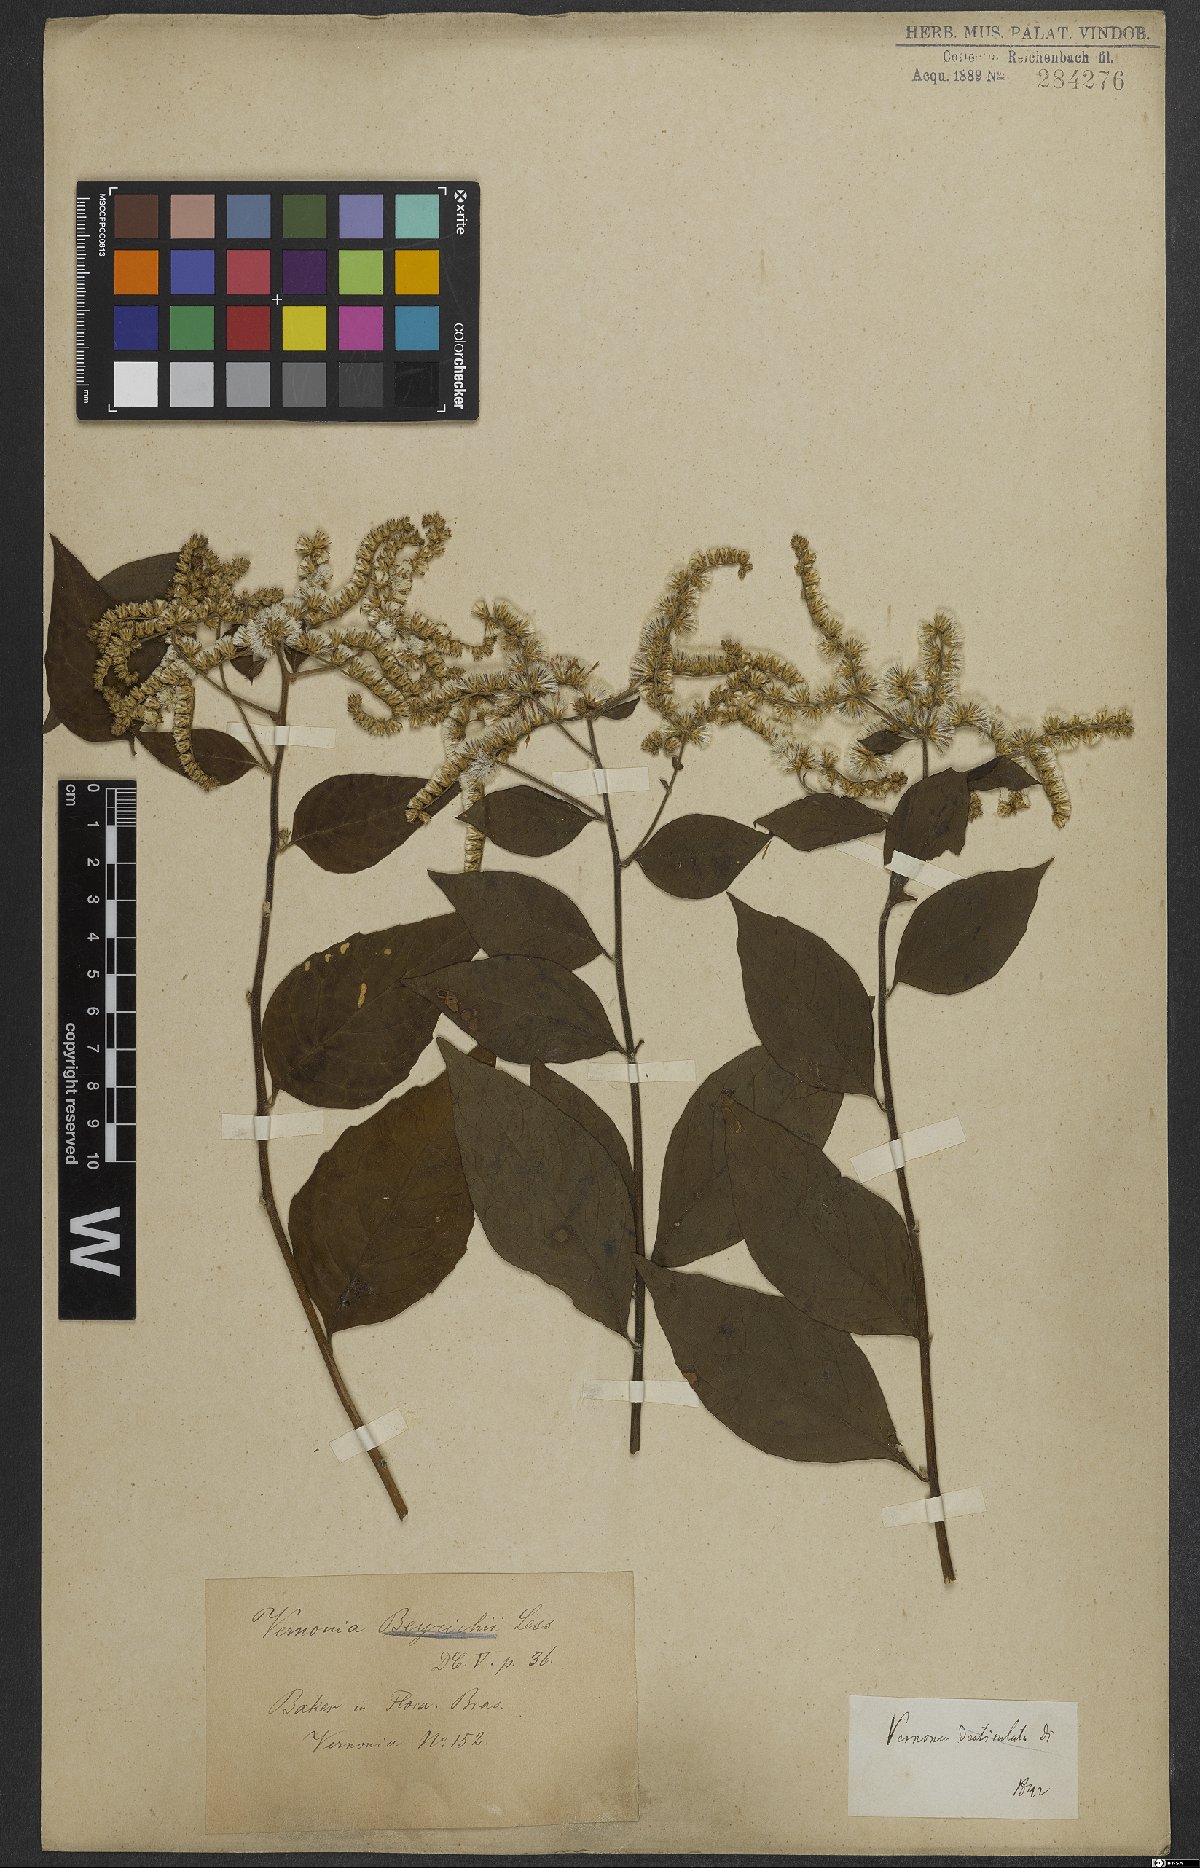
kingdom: Plantae
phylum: Tracheophyta
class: Magnoliopsida
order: Asterales
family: Asteraceae
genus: Vernonanthura
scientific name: Vernonanthura beyrichii
